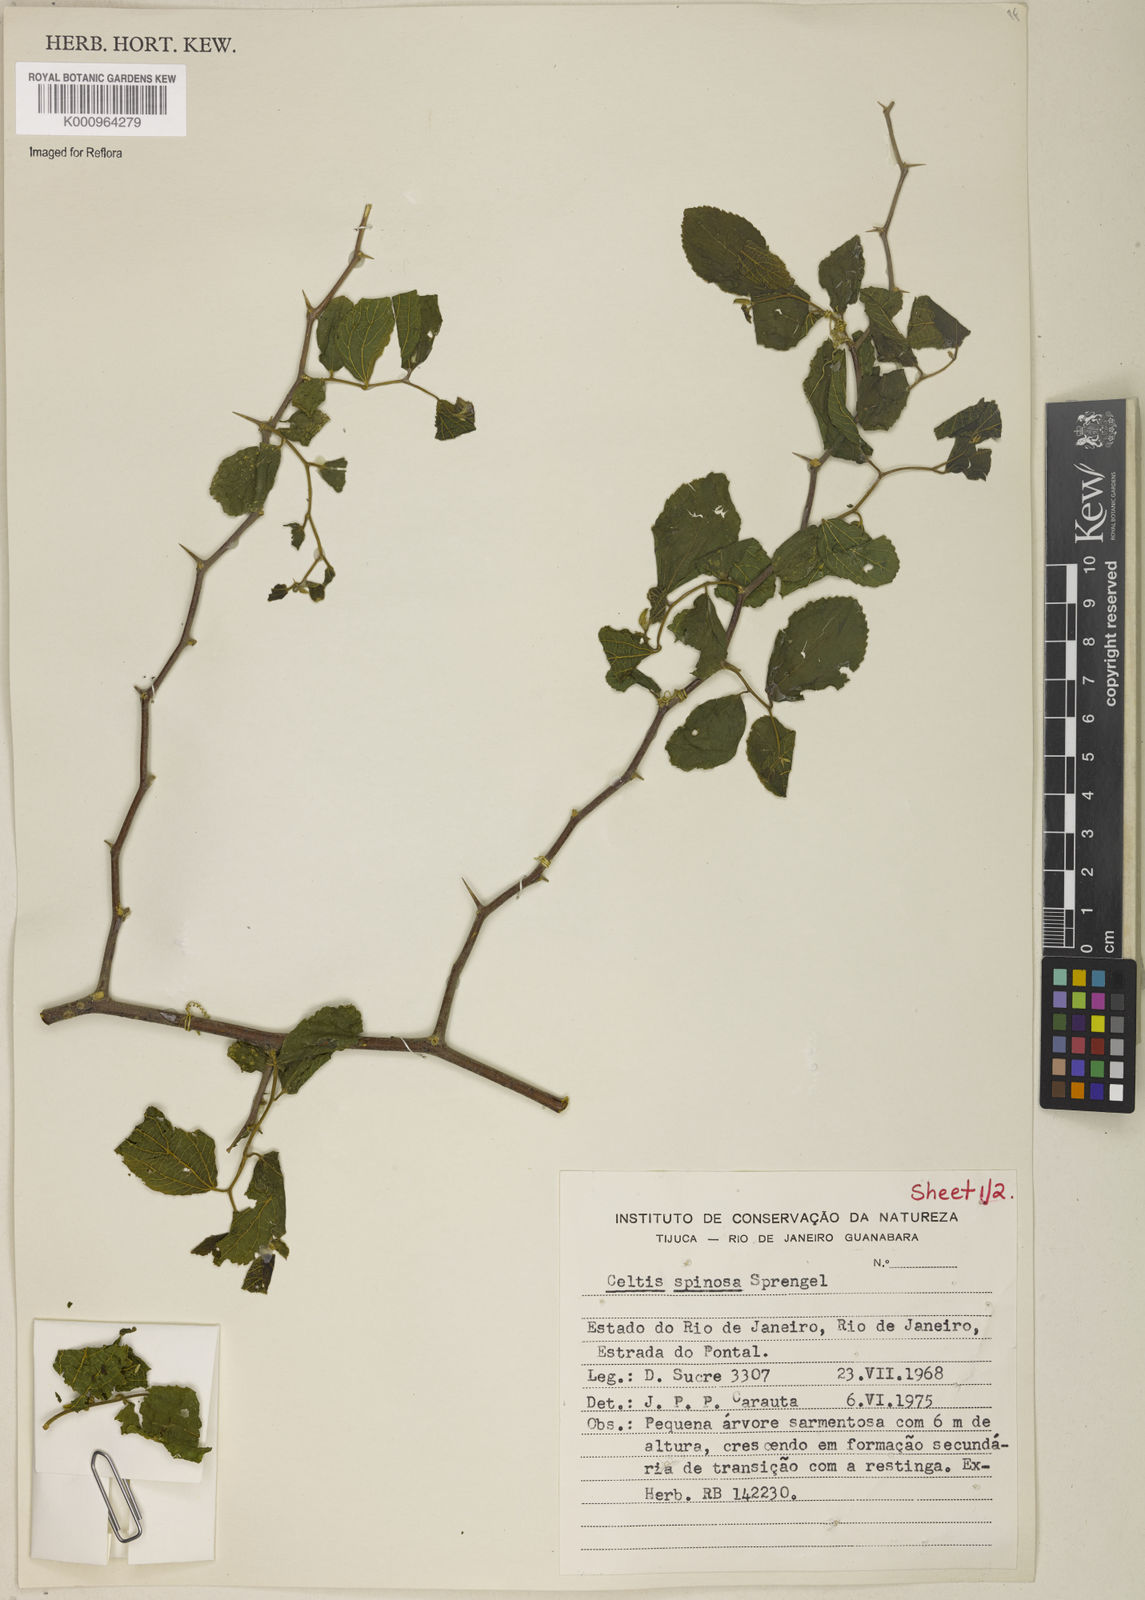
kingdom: Plantae
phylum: Tracheophyta
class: Magnoliopsida
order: Rosales
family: Cannabaceae
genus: Celtis
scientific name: Celtis spinosa
